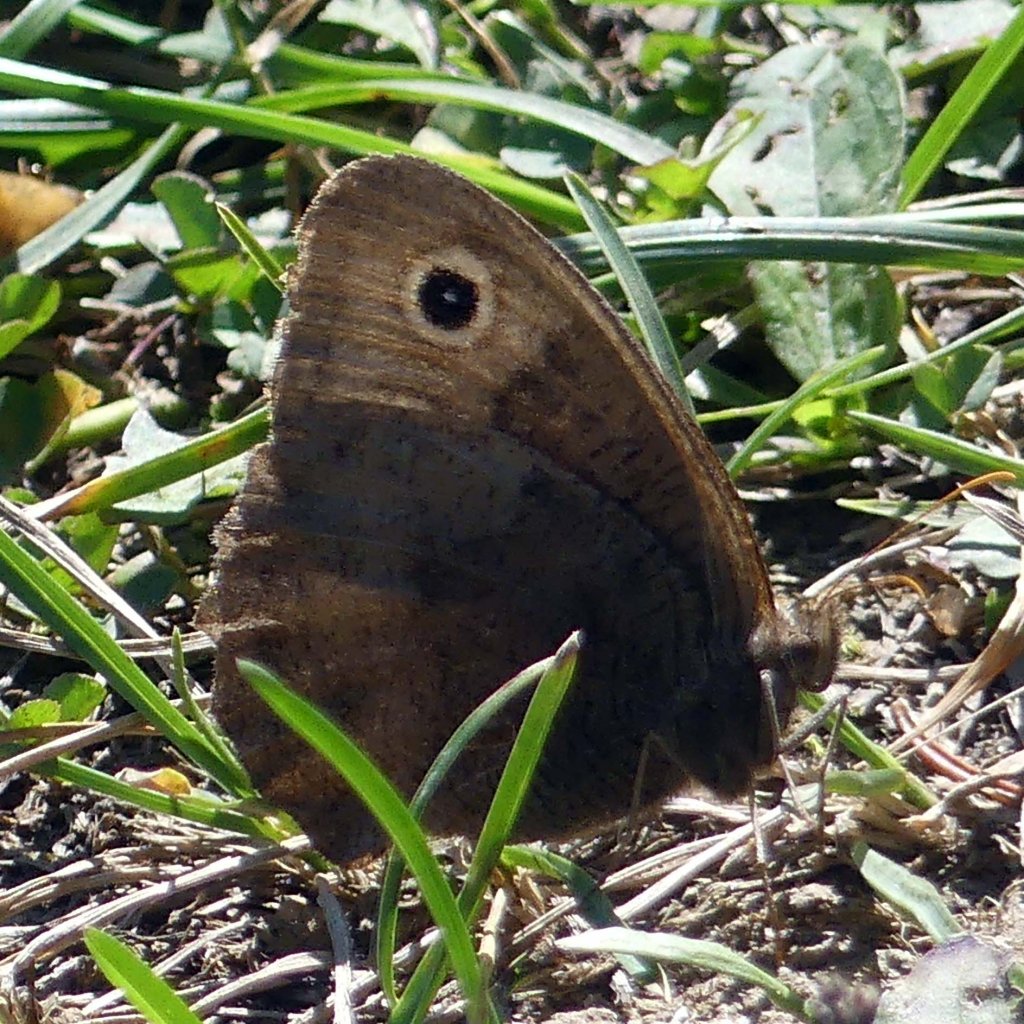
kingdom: Animalia
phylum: Arthropoda
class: Insecta
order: Lepidoptera
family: Nymphalidae
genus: Cercyonis
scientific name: Cercyonis pegala
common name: Common Wood-Nymph
